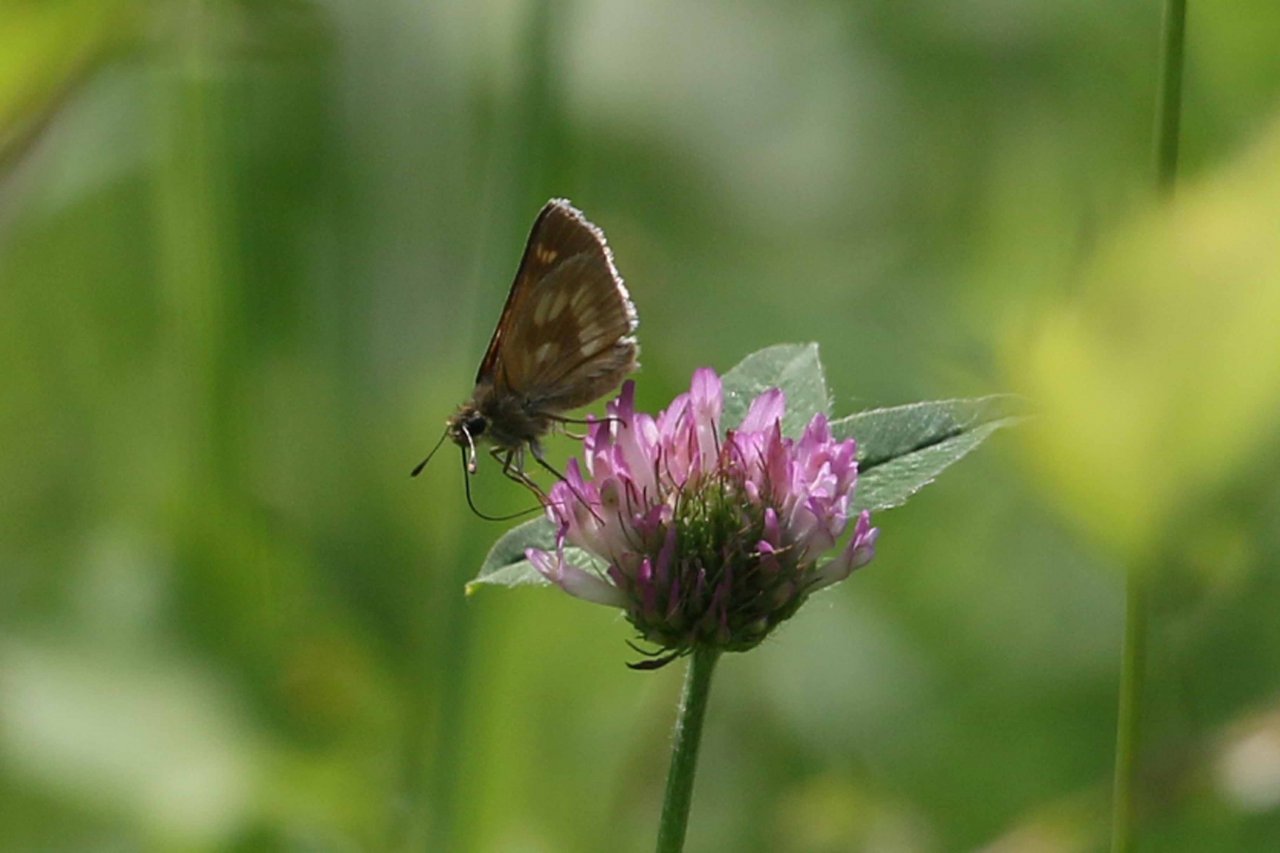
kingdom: Animalia
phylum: Arthropoda
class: Insecta
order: Lepidoptera
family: Hesperiidae
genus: Polites
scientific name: Polites
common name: Long Dash Skipper
